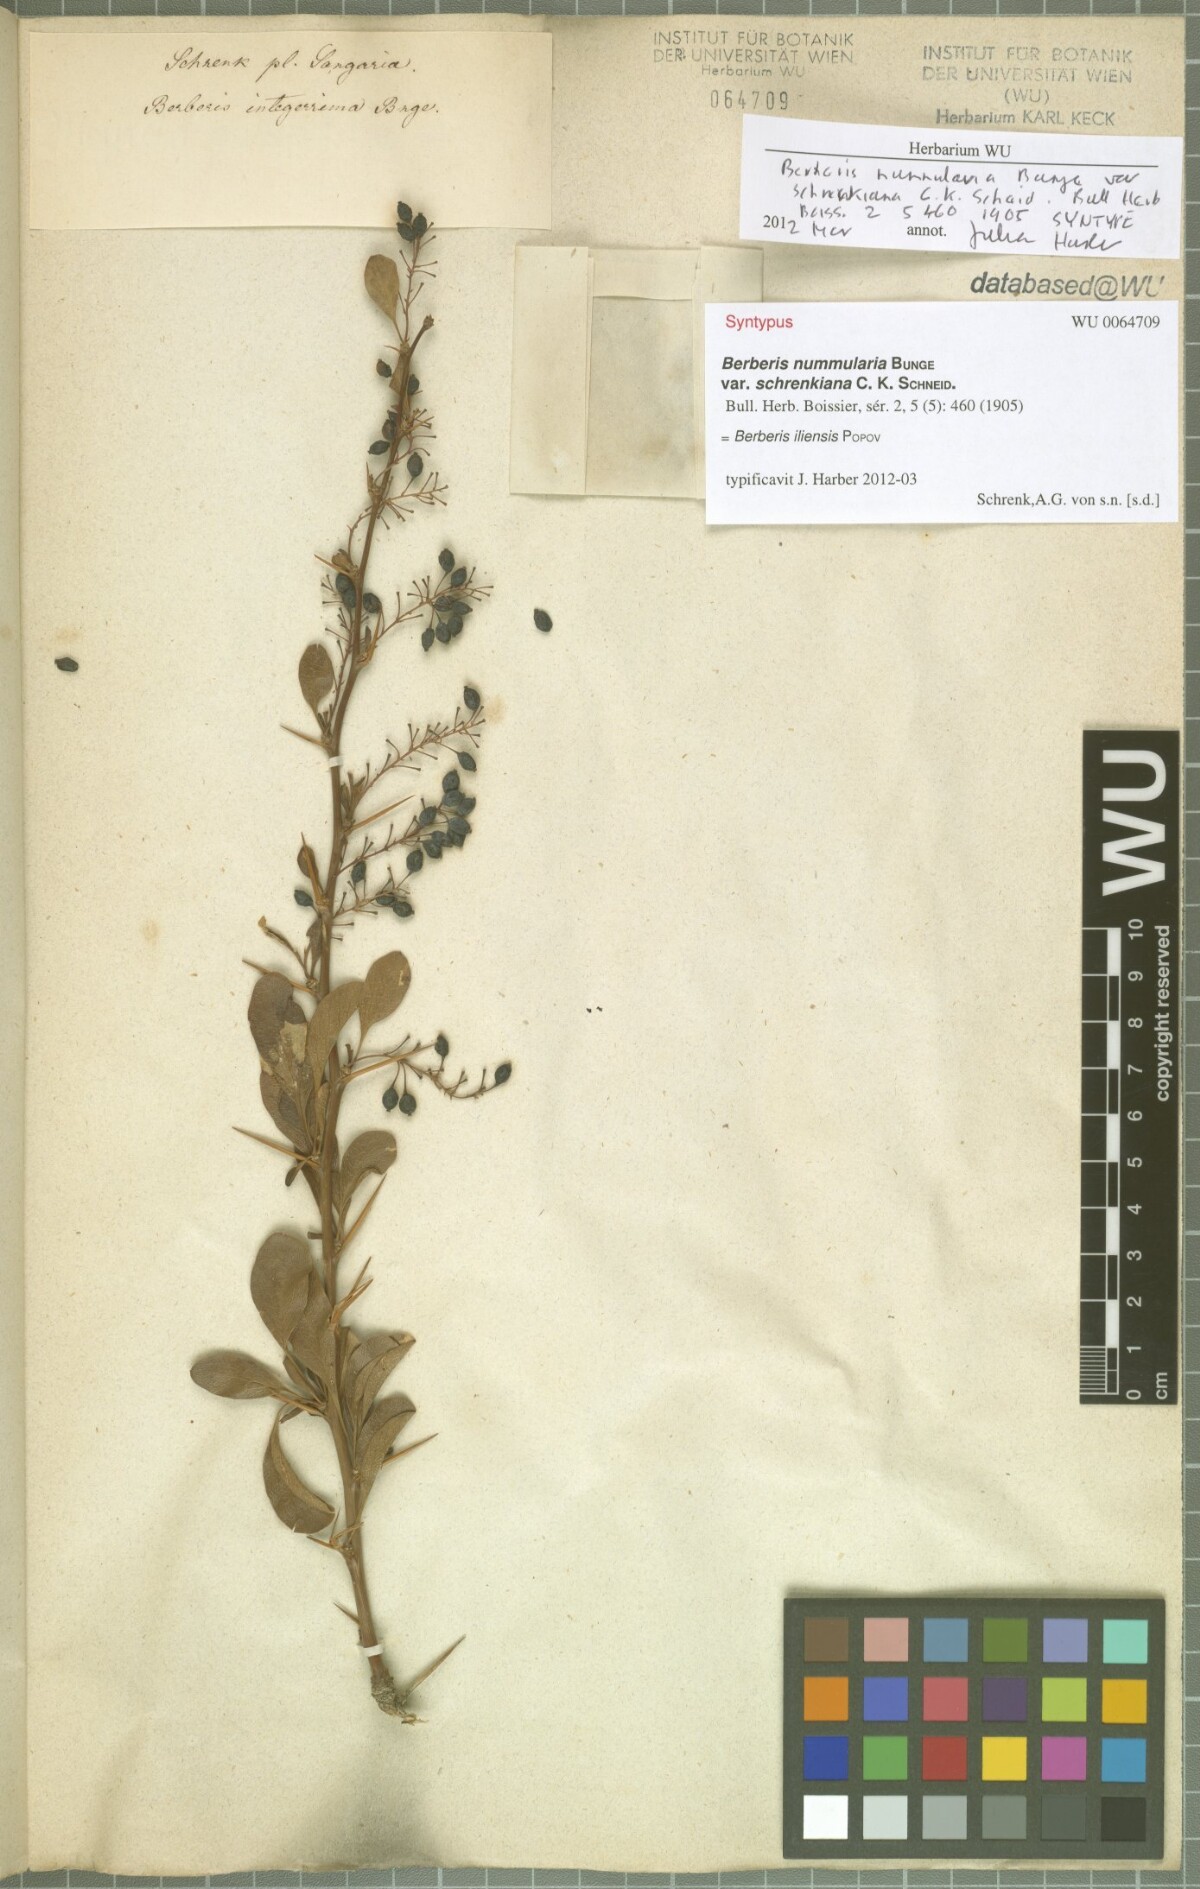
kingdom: Plantae
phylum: Tracheophyta
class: Magnoliopsida
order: Ranunculales
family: Berberidaceae
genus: Berberis
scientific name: Berberis integerrima
